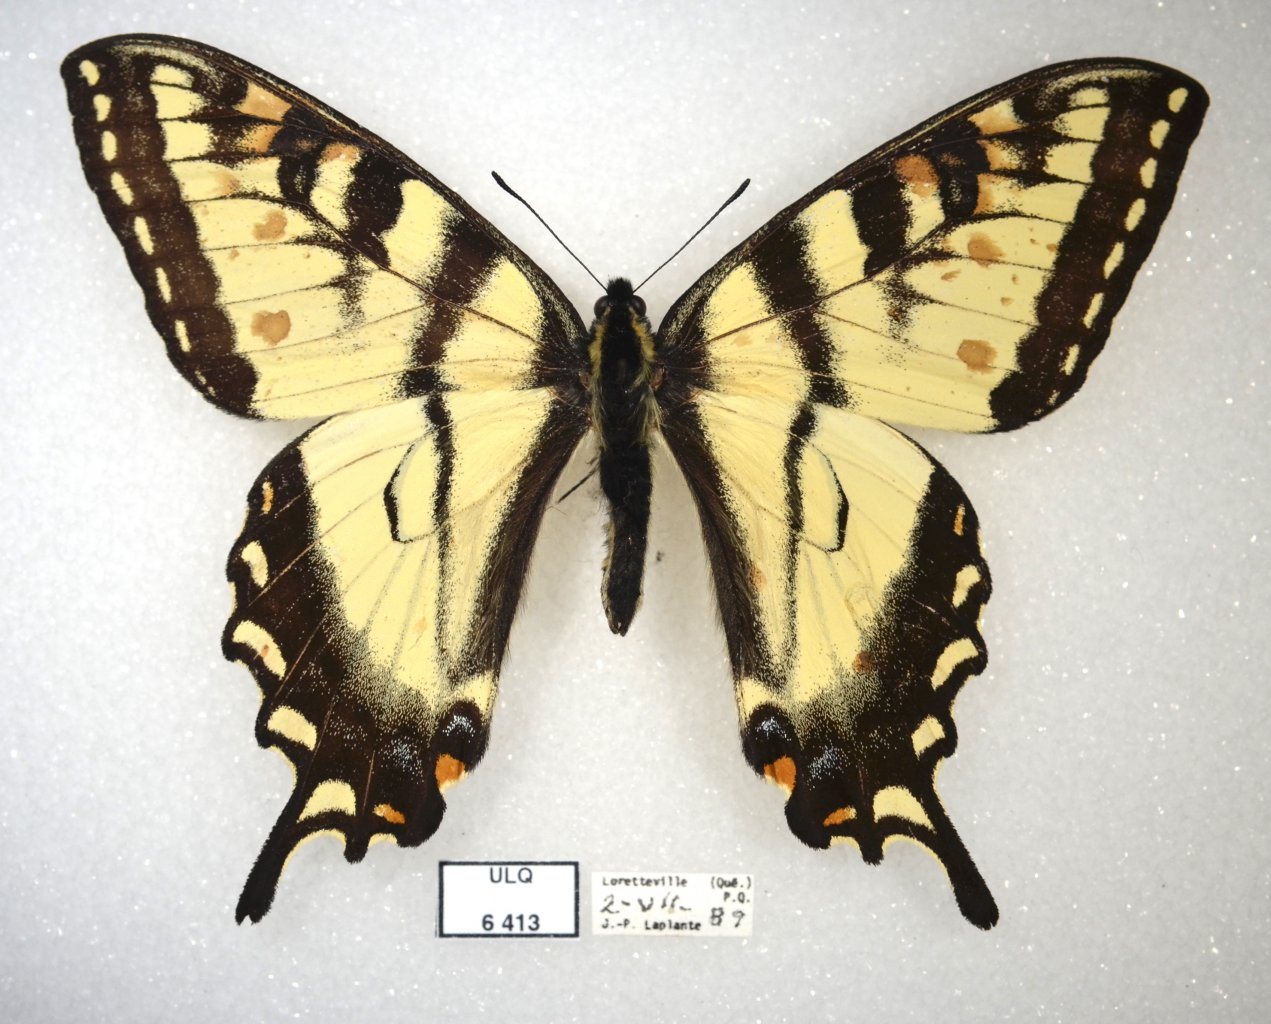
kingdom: Animalia
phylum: Arthropoda
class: Insecta
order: Lepidoptera
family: Papilionidae
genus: Pterourus
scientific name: Pterourus canadensis
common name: Canadian Tiger Swallowtail
